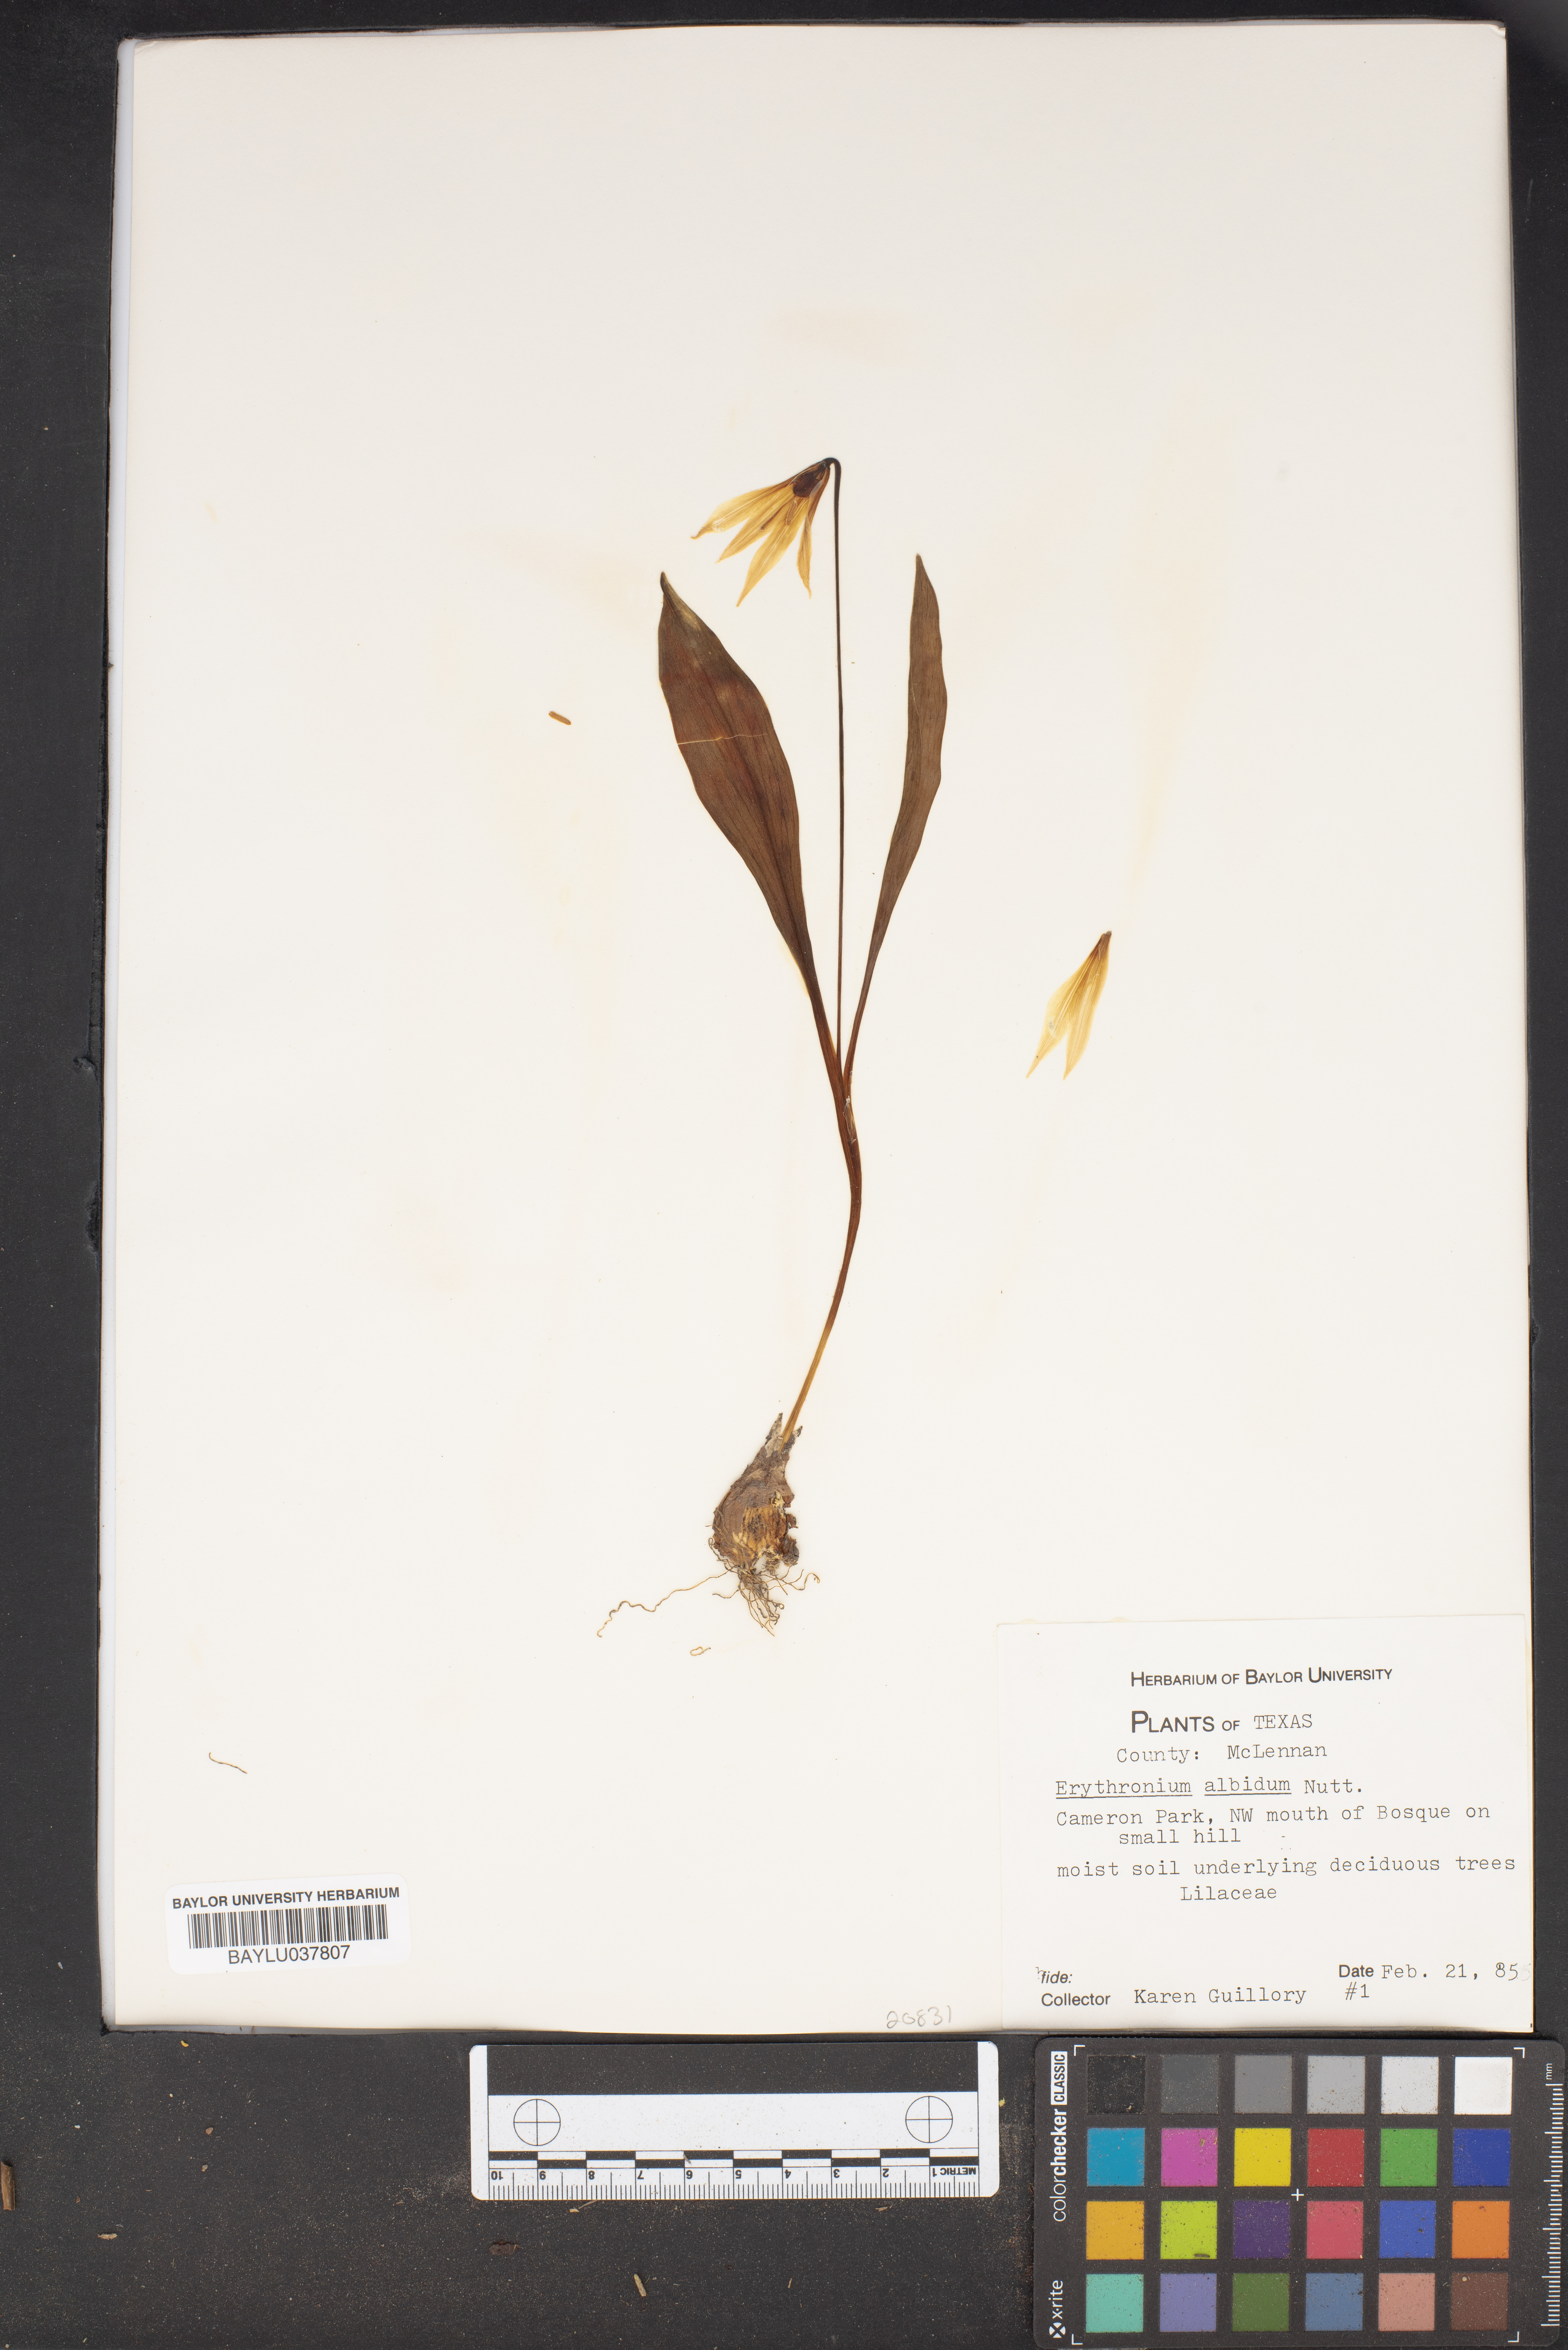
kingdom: Plantae
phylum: Tracheophyta
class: Liliopsida
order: Liliales
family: Liliaceae
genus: Erythronium
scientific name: Erythronium albidum
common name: White trout-lily
